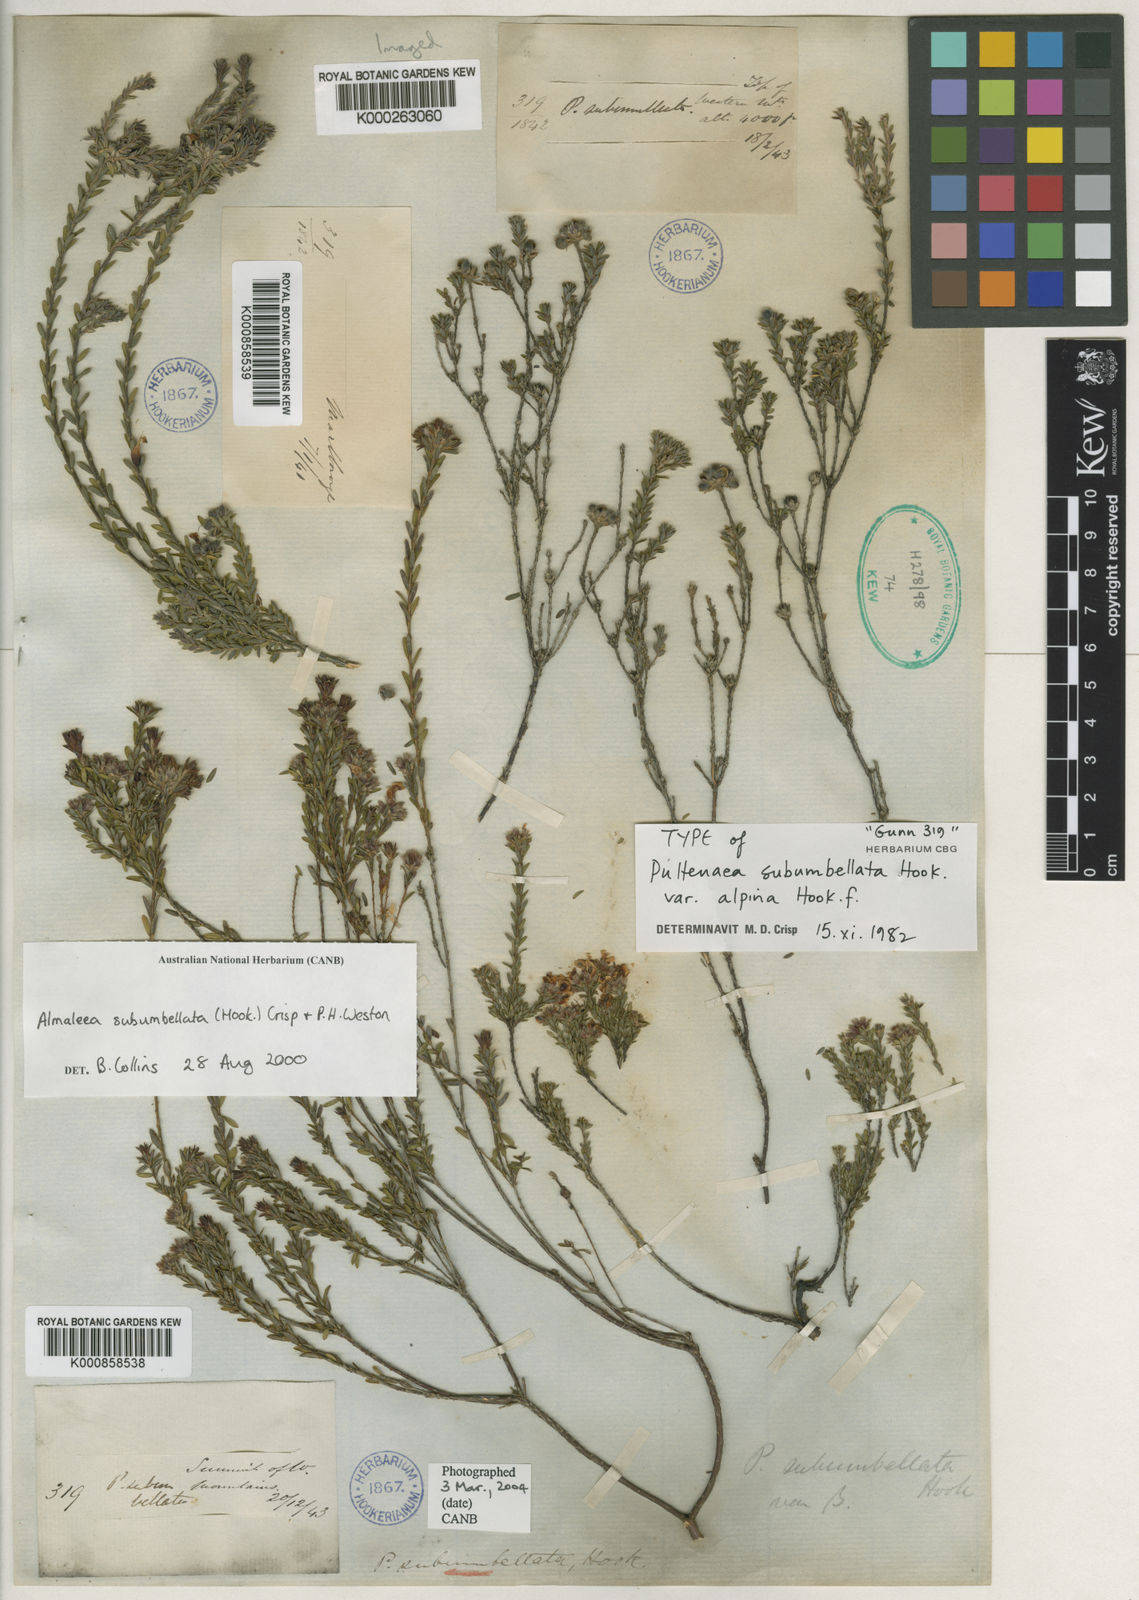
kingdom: Plantae
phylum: Tracheophyta
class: Magnoliopsida
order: Fabales
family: Fabaceae
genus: Almaleea
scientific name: Almaleea subumbellata
